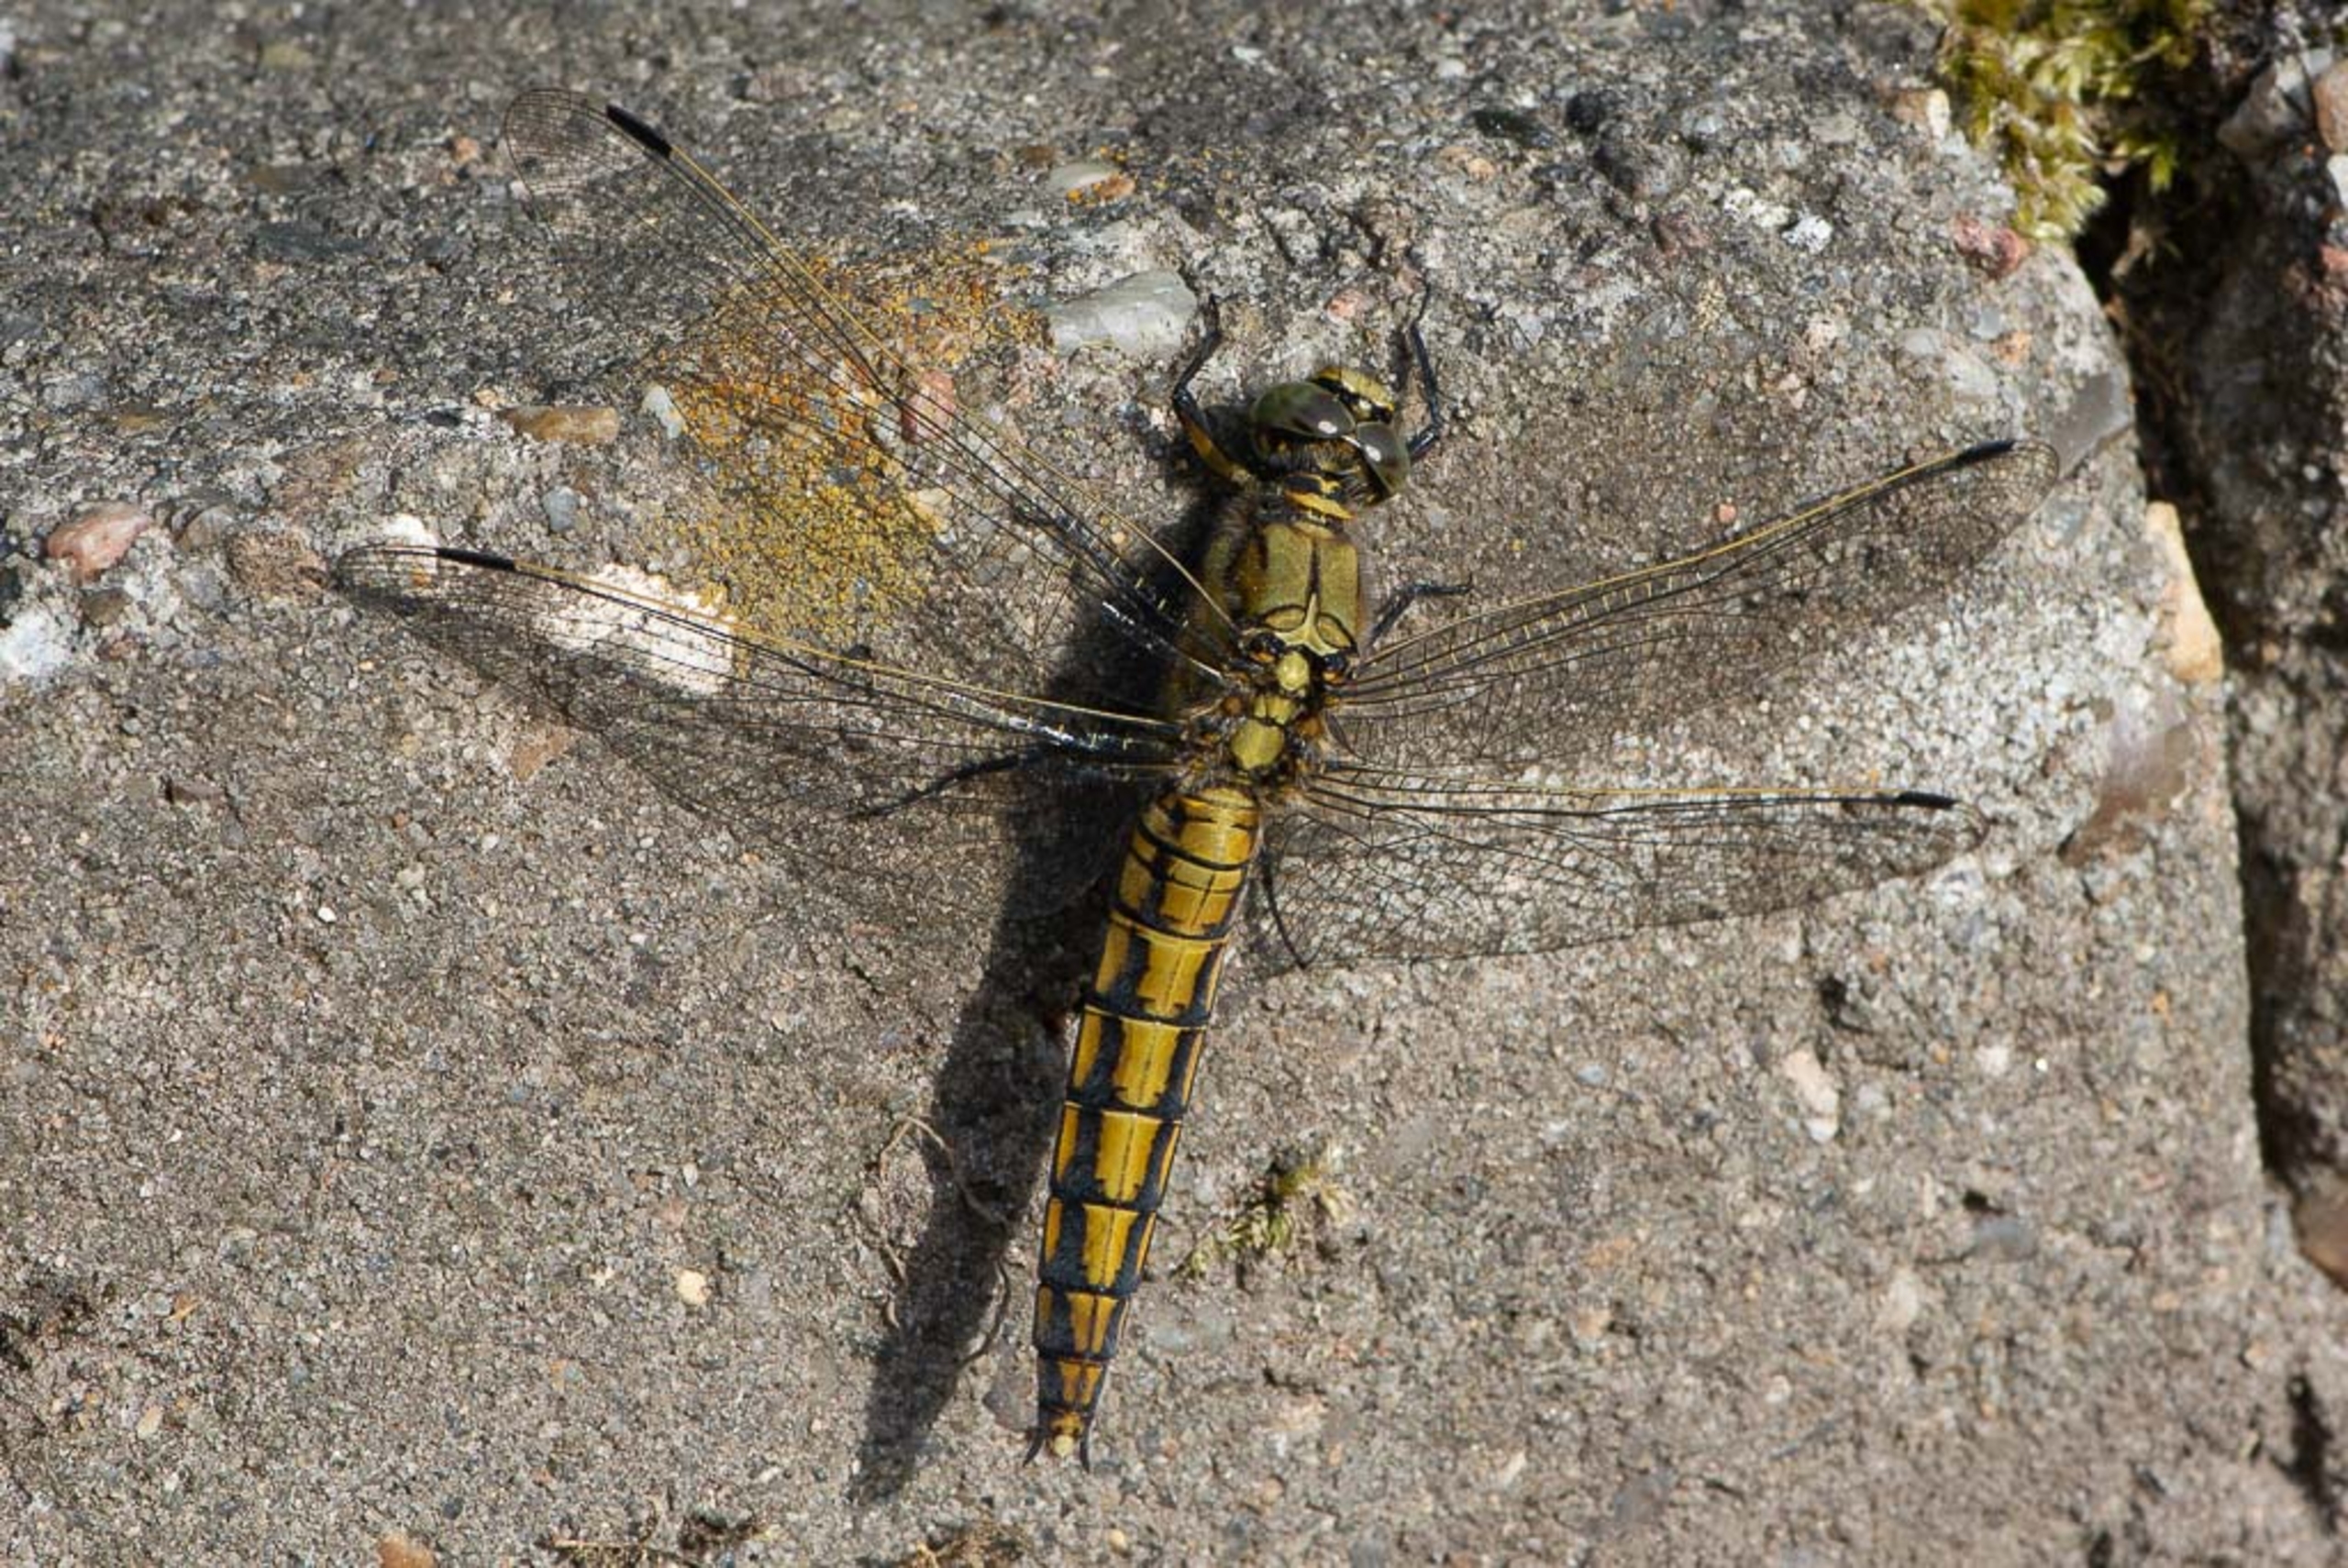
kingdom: Animalia
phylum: Arthropoda
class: Insecta
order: Odonata
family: Libellulidae
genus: Orthetrum
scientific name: Orthetrum cancellatum
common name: Stor blåpil
